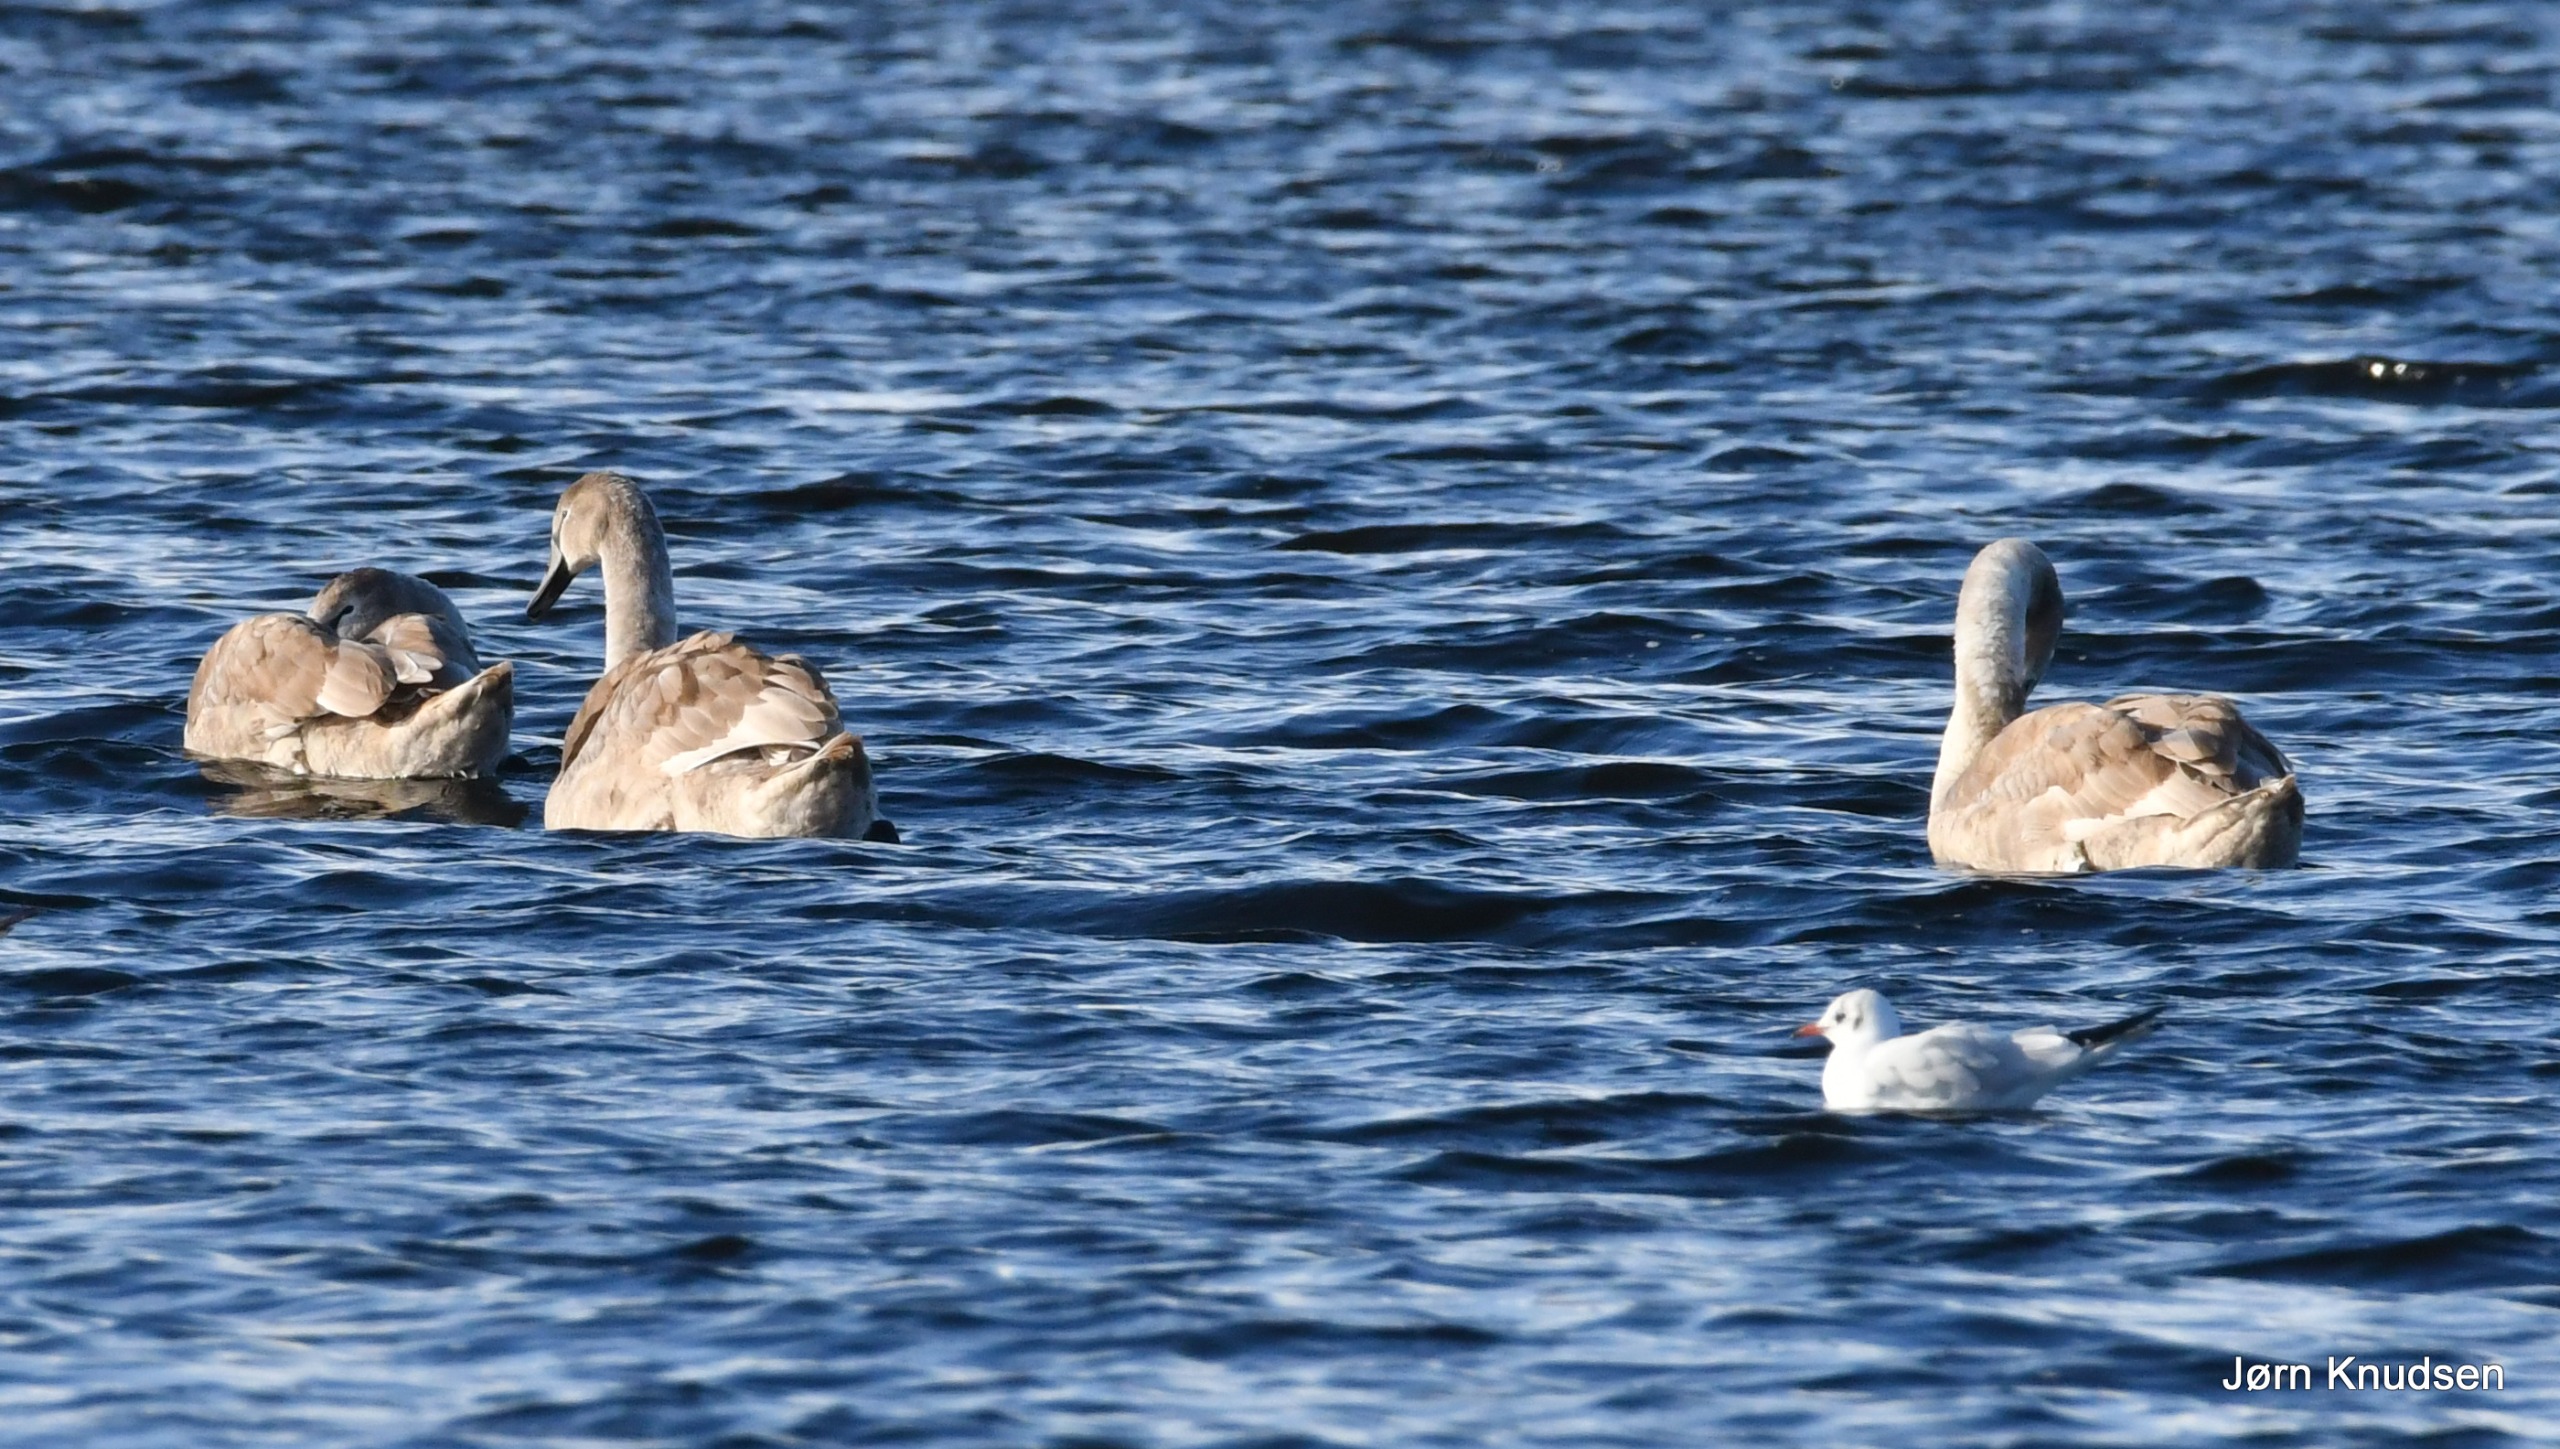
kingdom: Animalia
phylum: Chordata
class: Aves
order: Anseriformes
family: Anatidae
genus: Cygnus
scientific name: Cygnus olor
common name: Knopsvane
